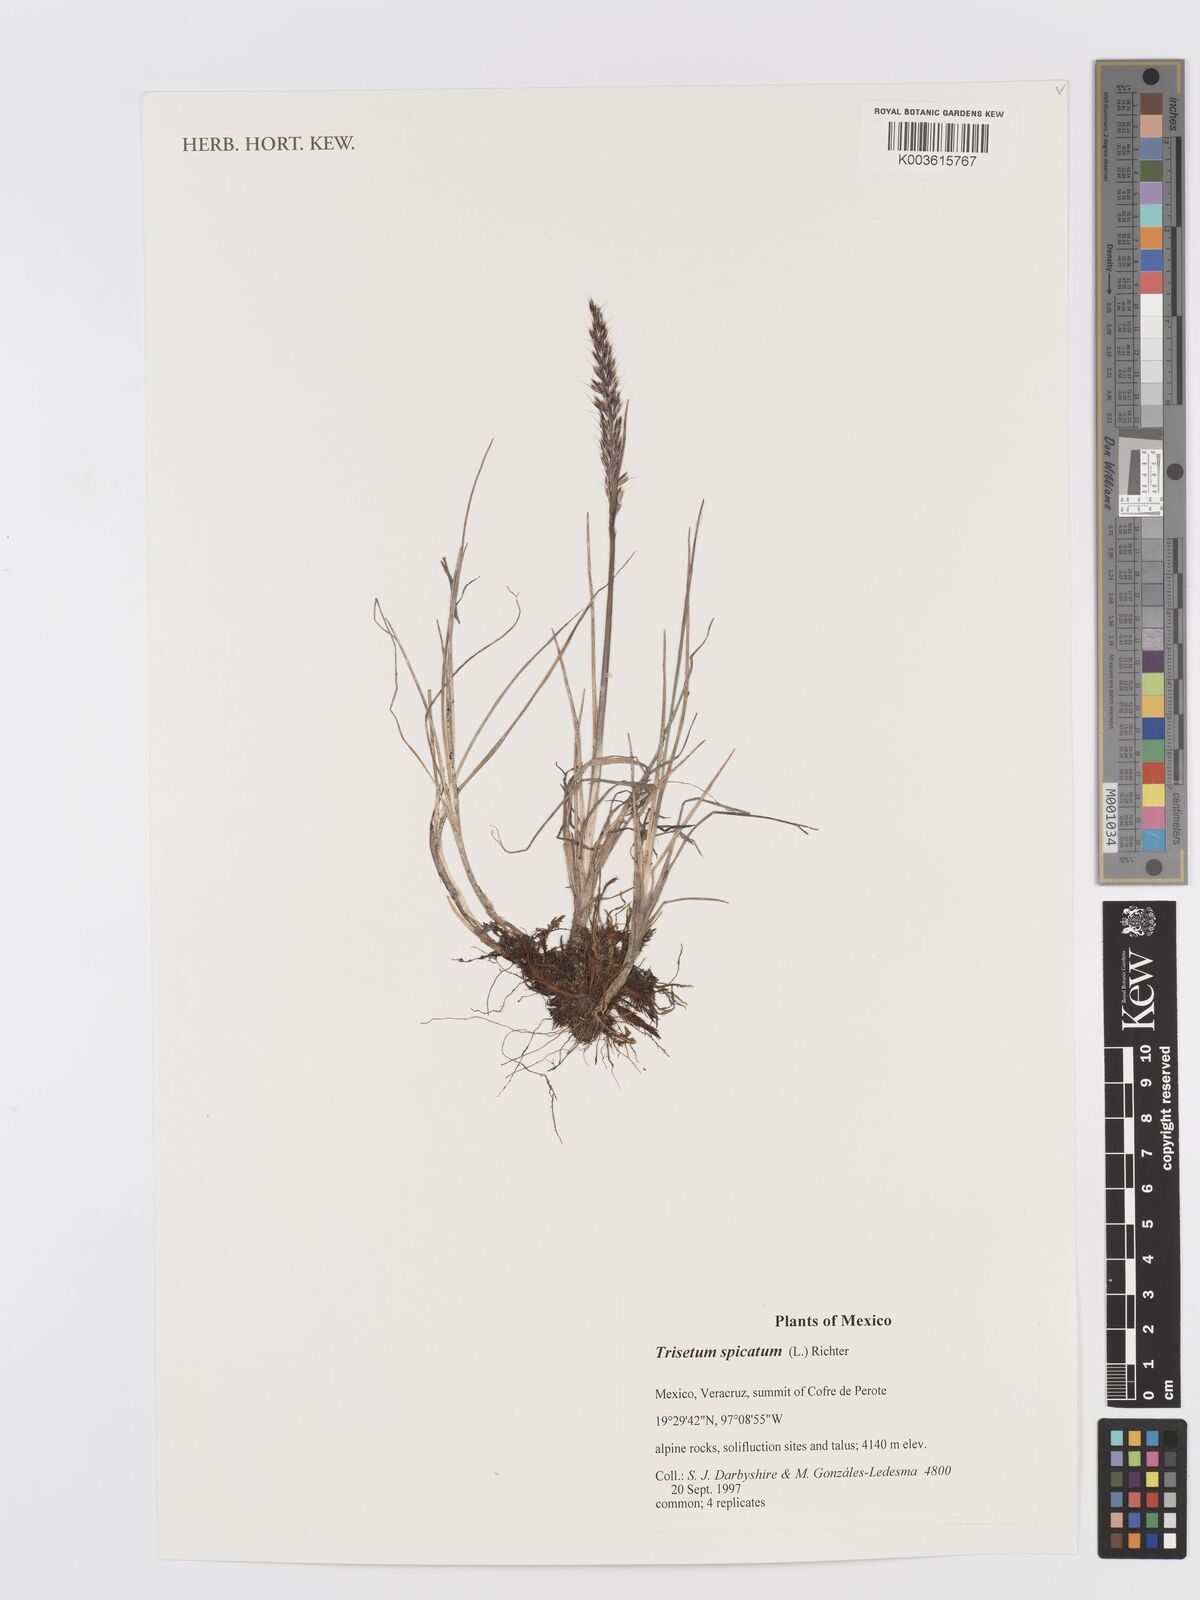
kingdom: Plantae
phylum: Tracheophyta
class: Liliopsida
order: Poales
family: Poaceae
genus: Koeleria
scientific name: Koeleria spicata
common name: Mountain trisetum
